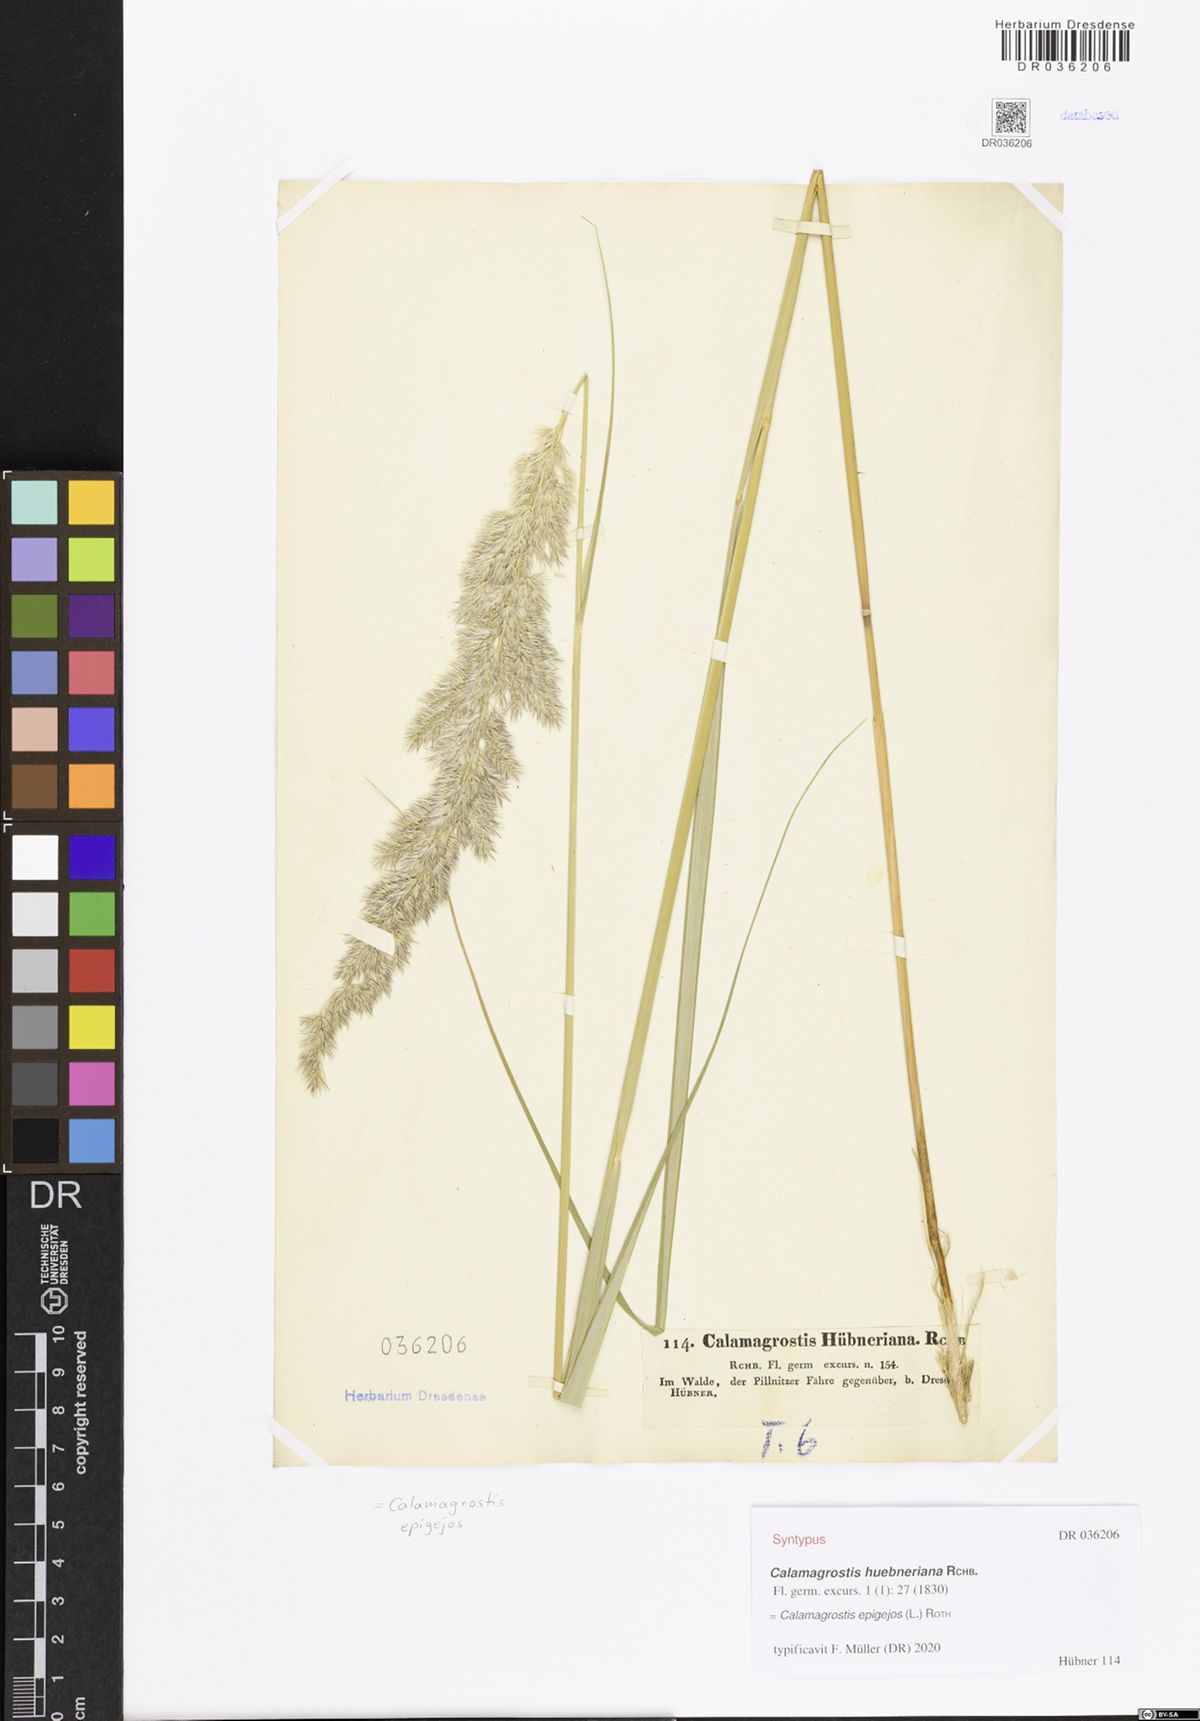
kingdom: Plantae
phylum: Tracheophyta
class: Liliopsida
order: Poales
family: Poaceae
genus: Calamagrostis
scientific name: Calamagrostis epigejos
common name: Wood small-reed
